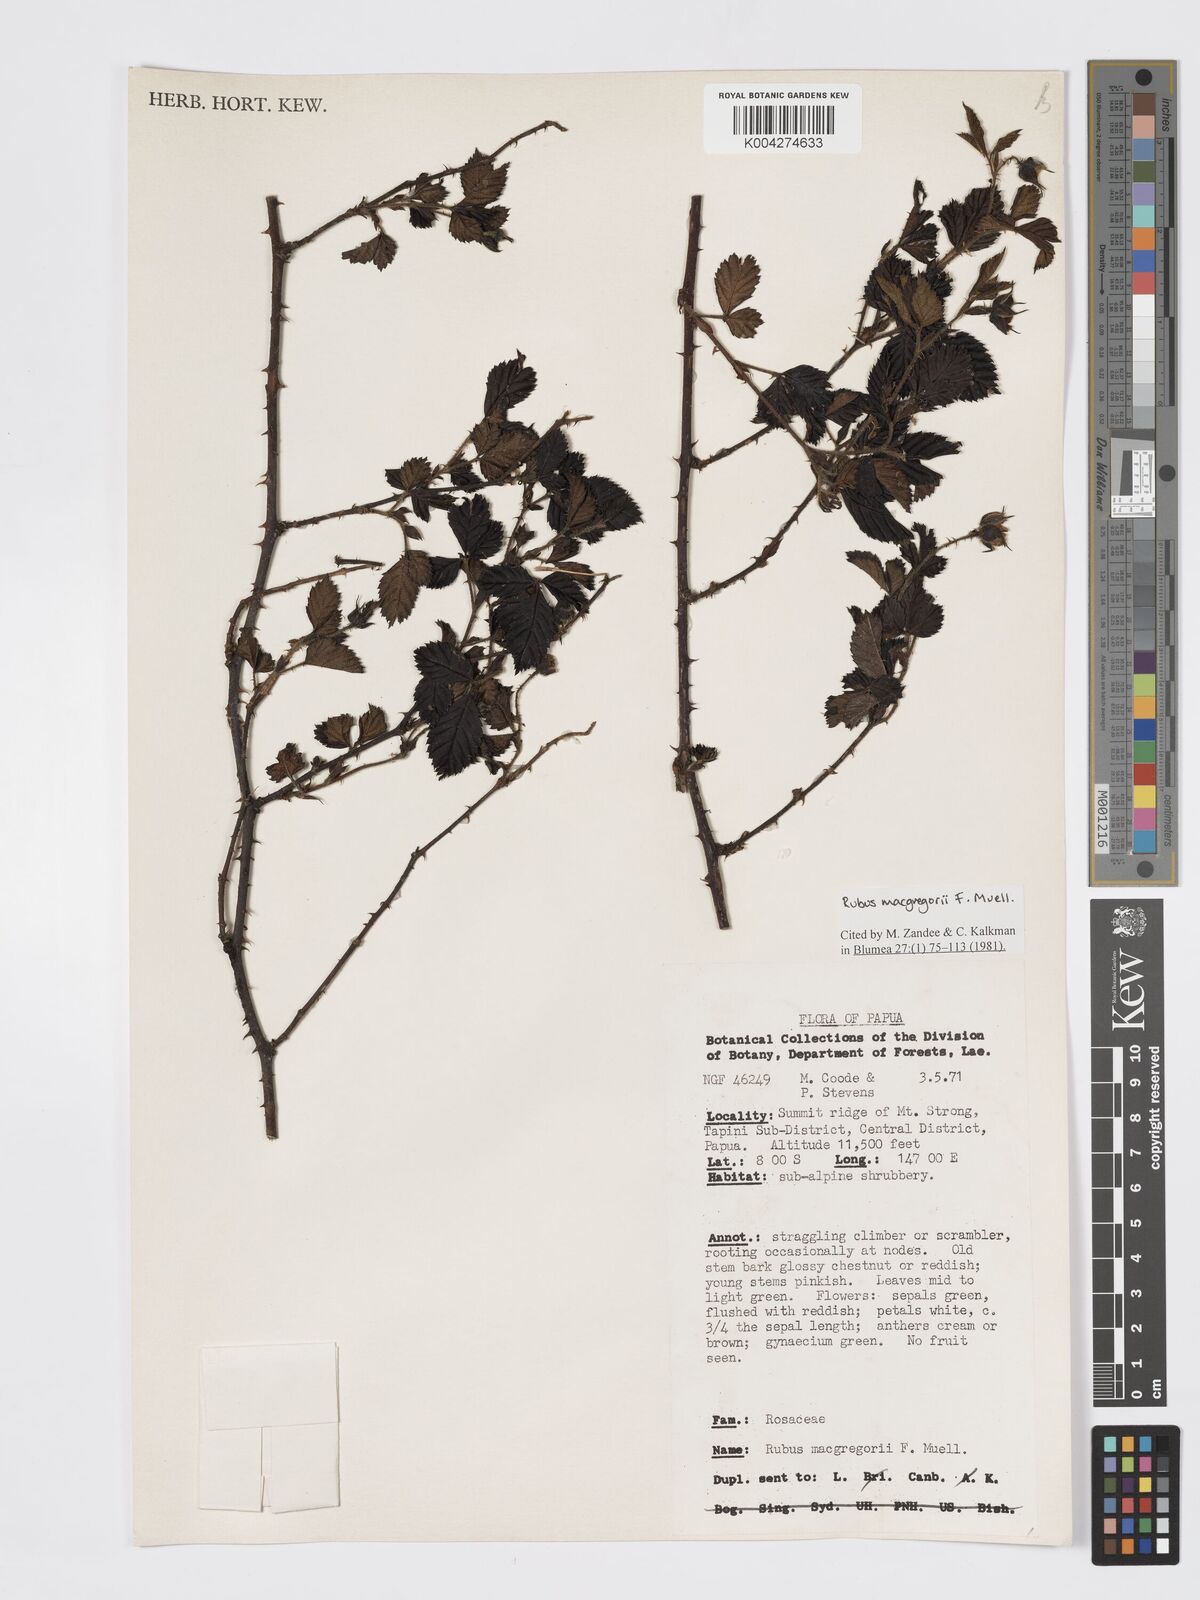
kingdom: Plantae
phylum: Tracheophyta
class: Magnoliopsida
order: Rosales
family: Rosaceae
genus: Rubus
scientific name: Rubus macgregorii
